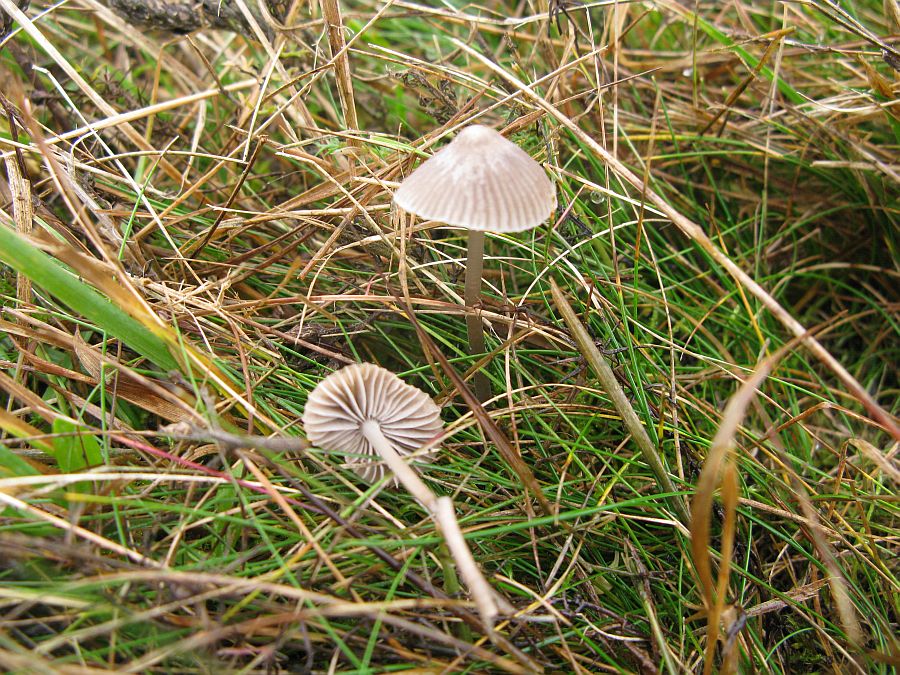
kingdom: Fungi
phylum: Basidiomycota
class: Agaricomycetes
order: Agaricales
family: Mycenaceae
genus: Mycena
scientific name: Mycena aetites
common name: plæne-huesvamp
